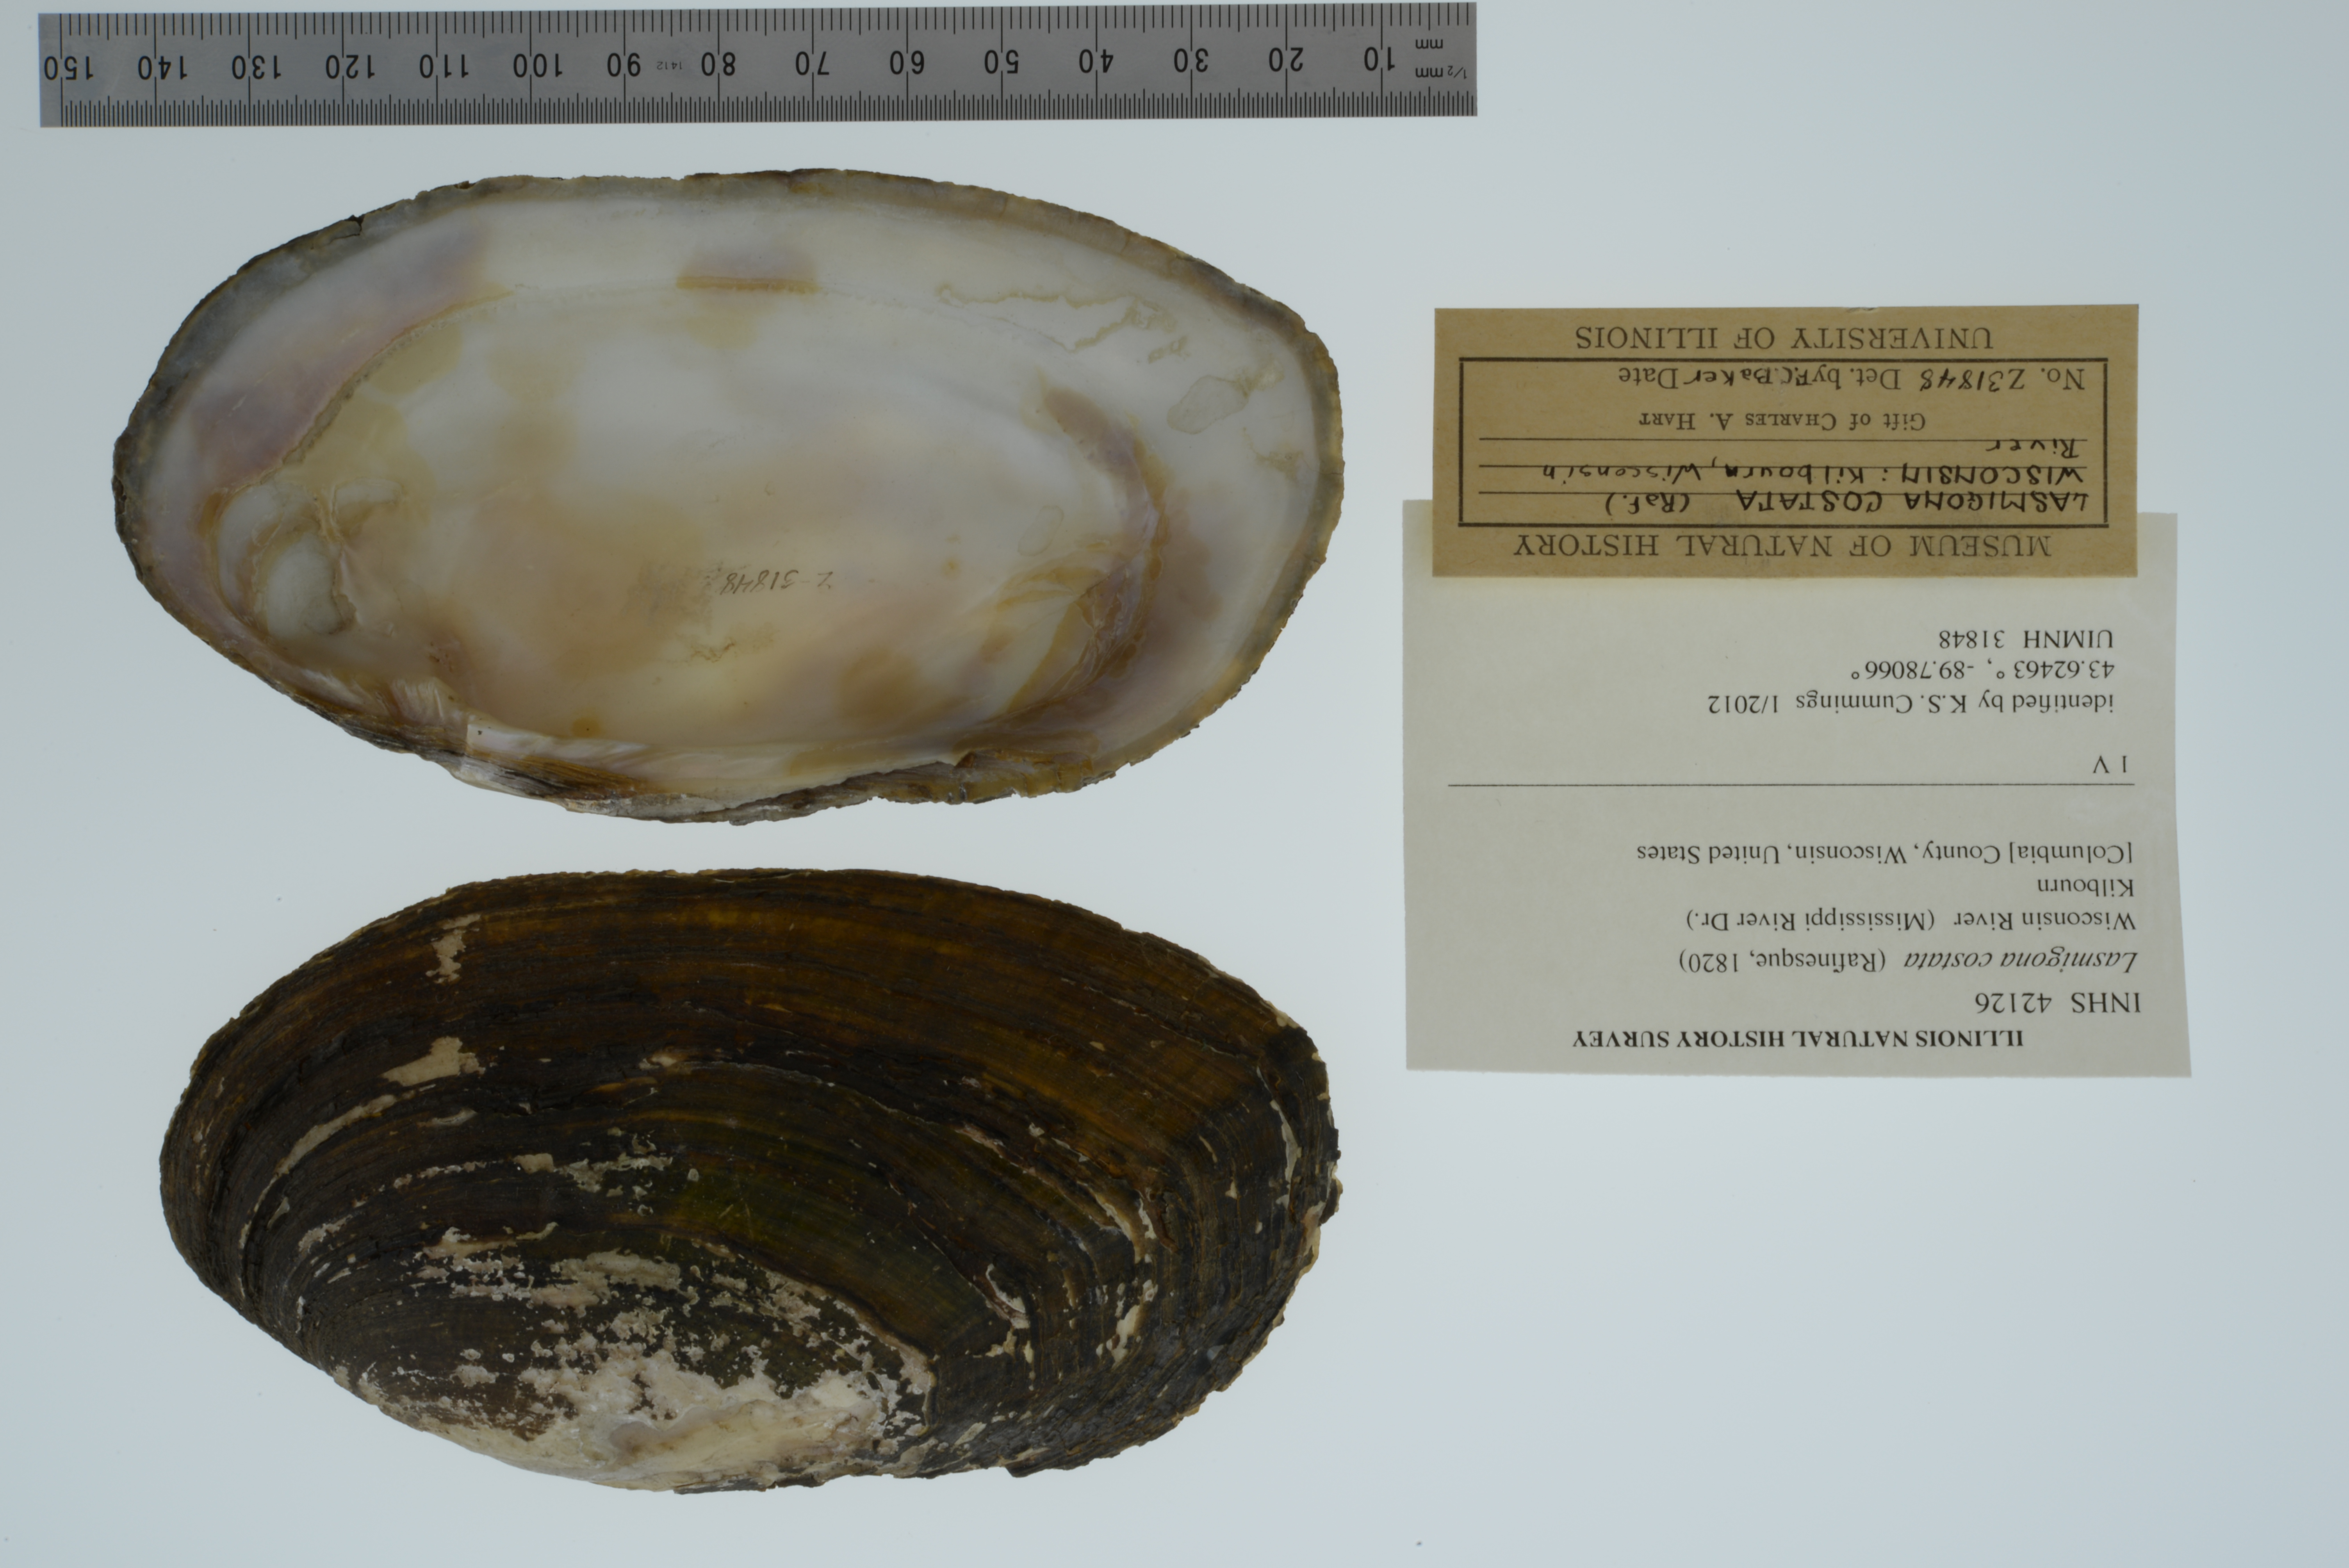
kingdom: Animalia
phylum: Mollusca
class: Bivalvia
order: Unionida
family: Unionidae
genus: Lasmigona
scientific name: Lasmigona costata
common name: Flutedshell
